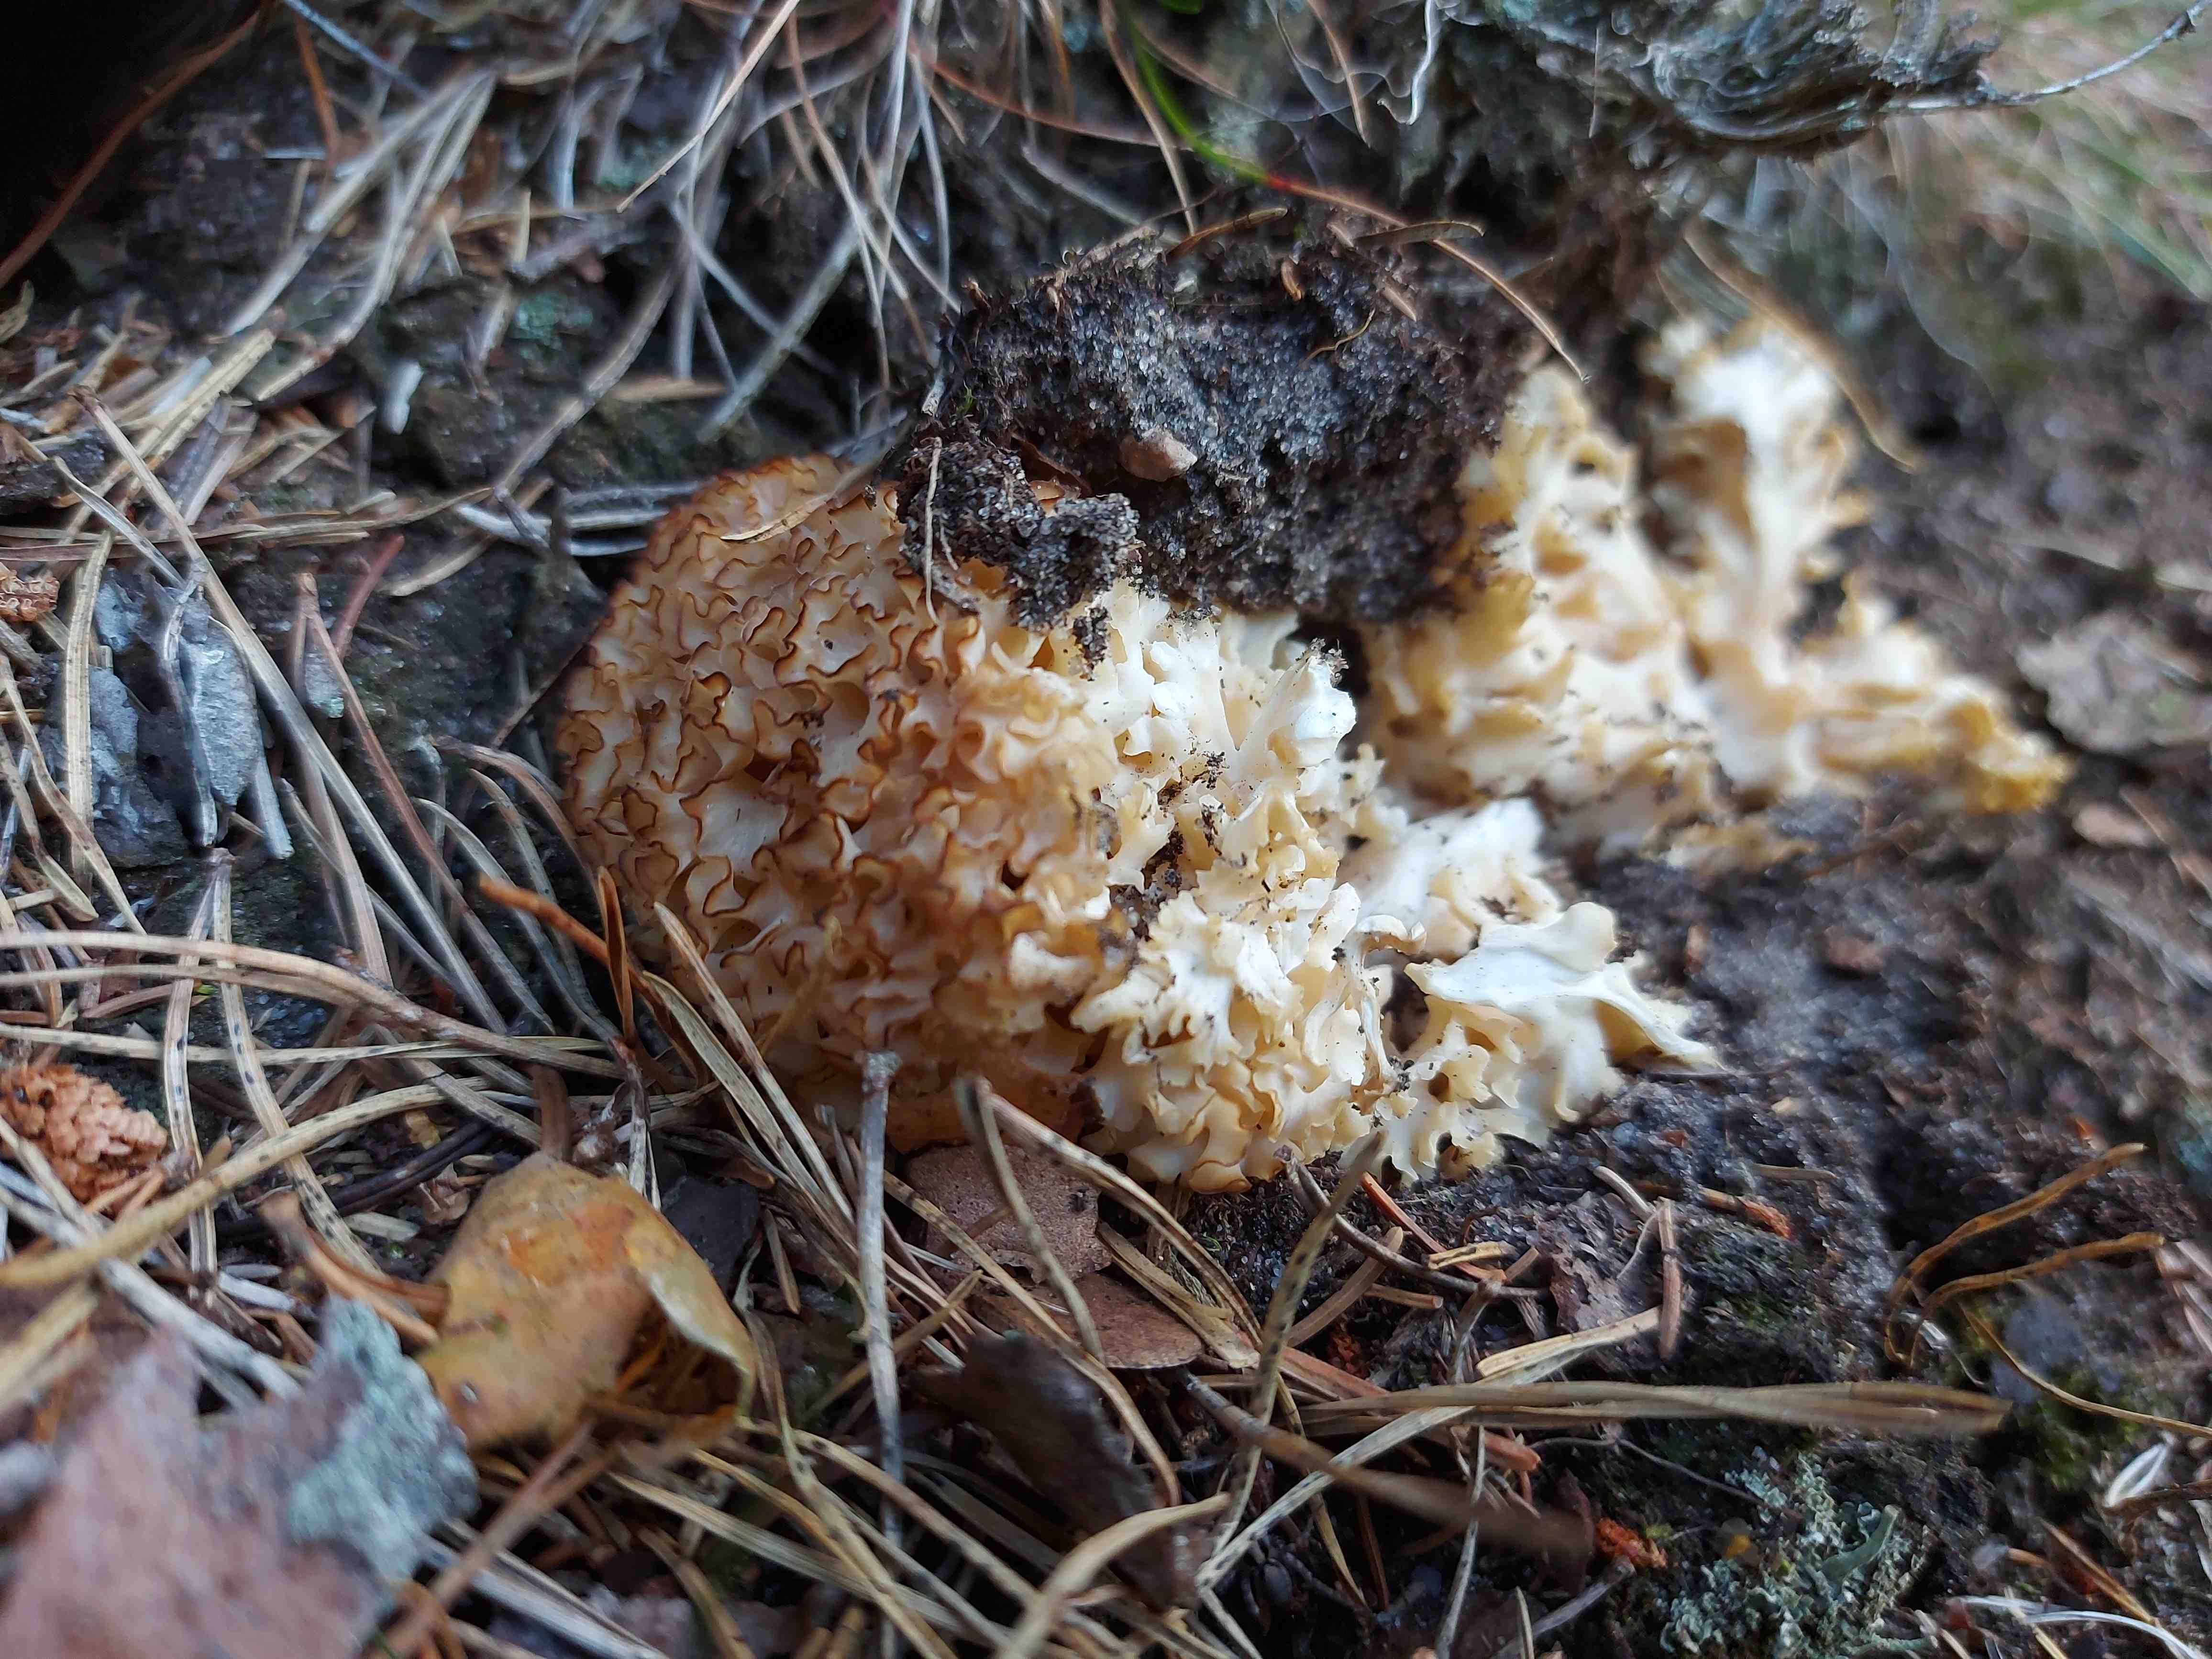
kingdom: Fungi
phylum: Basidiomycota
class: Agaricomycetes
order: Polyporales
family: Sparassidaceae
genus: Sparassis
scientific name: Sparassis crispa
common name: kruset blomkålssvamp
